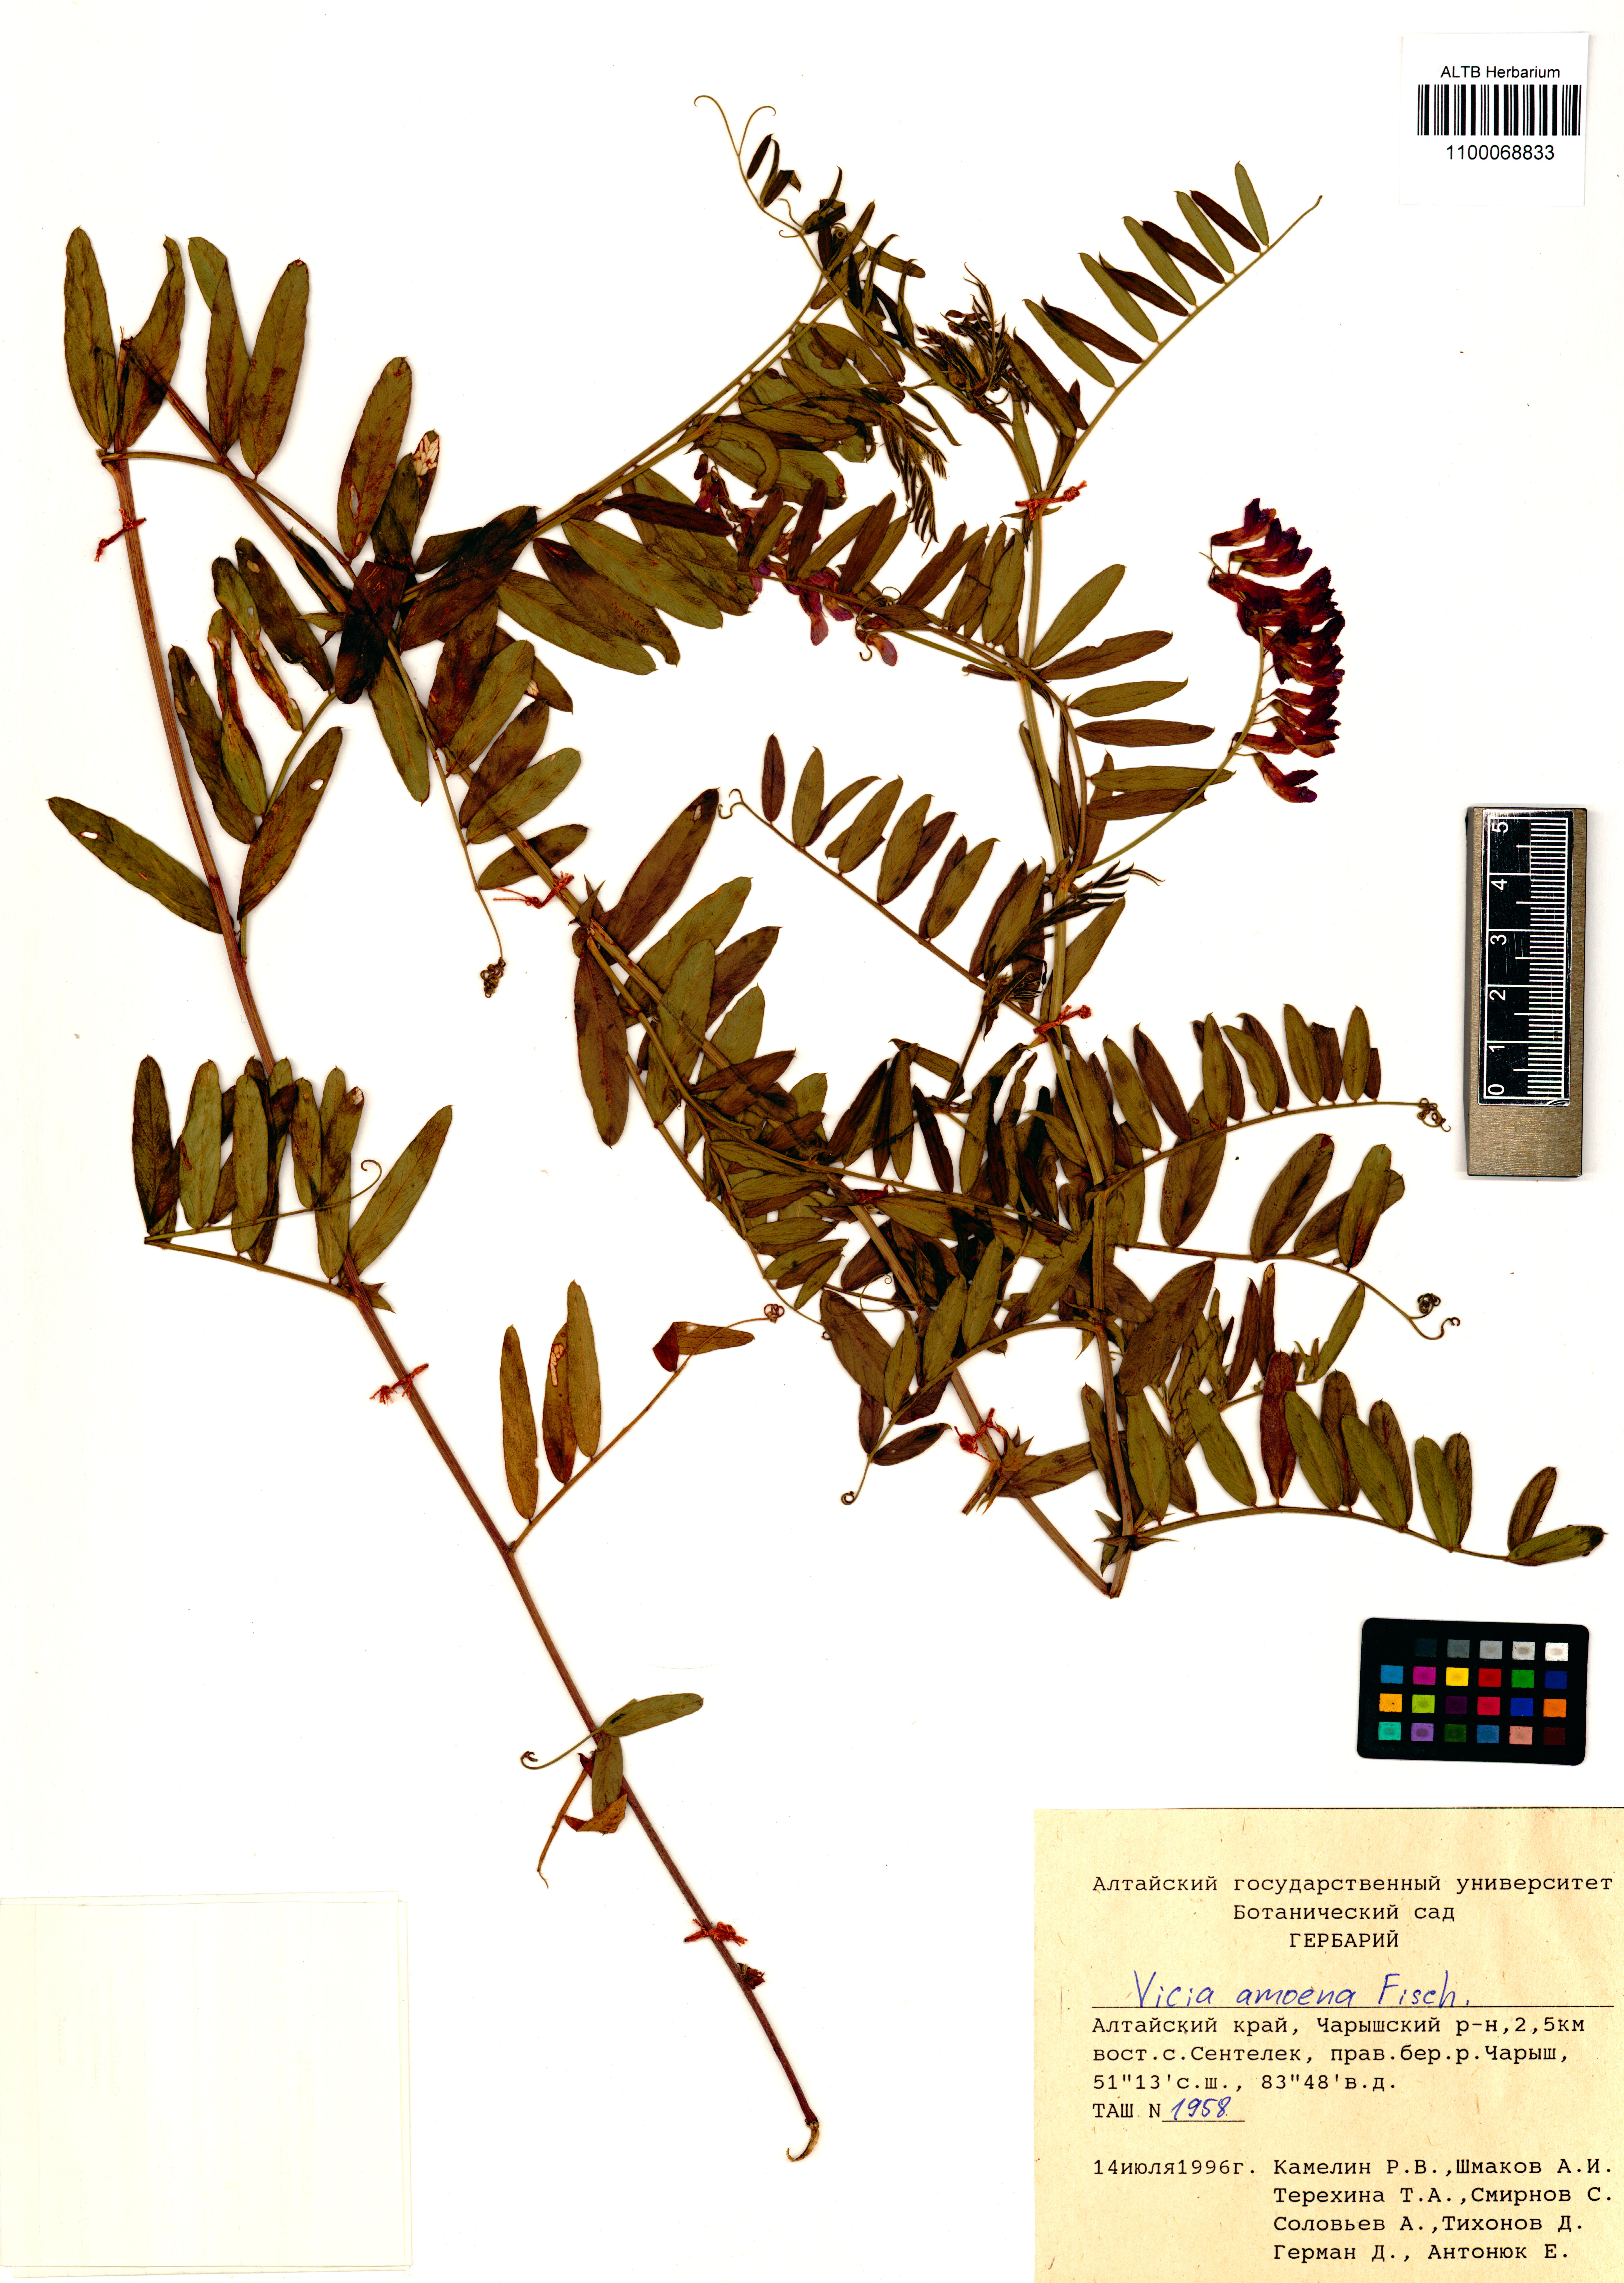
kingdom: Plantae
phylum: Tracheophyta
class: Magnoliopsida
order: Fabales
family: Fabaceae
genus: Vicia
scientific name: Vicia amoena
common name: Cheder ebs
